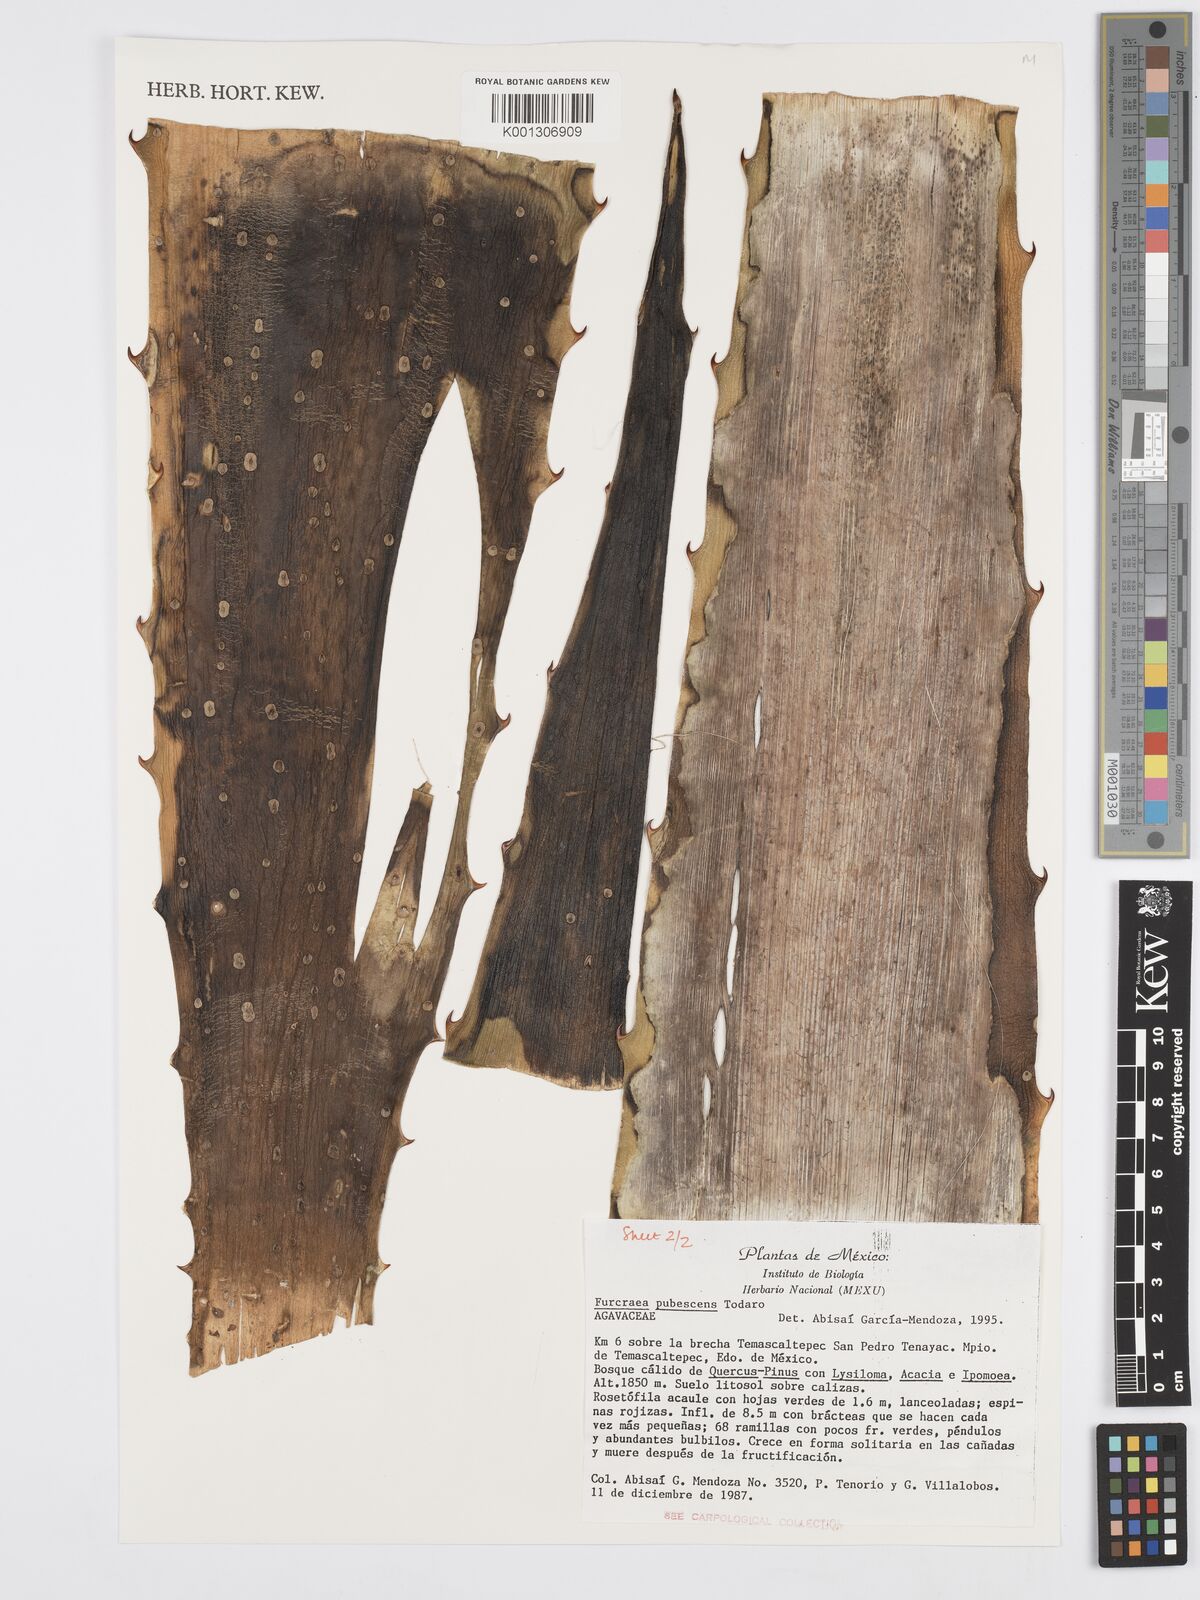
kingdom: Plantae
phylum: Tracheophyta
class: Liliopsida
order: Asparagales
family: Asparagaceae
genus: Furcraea
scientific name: Furcraea pubescens
